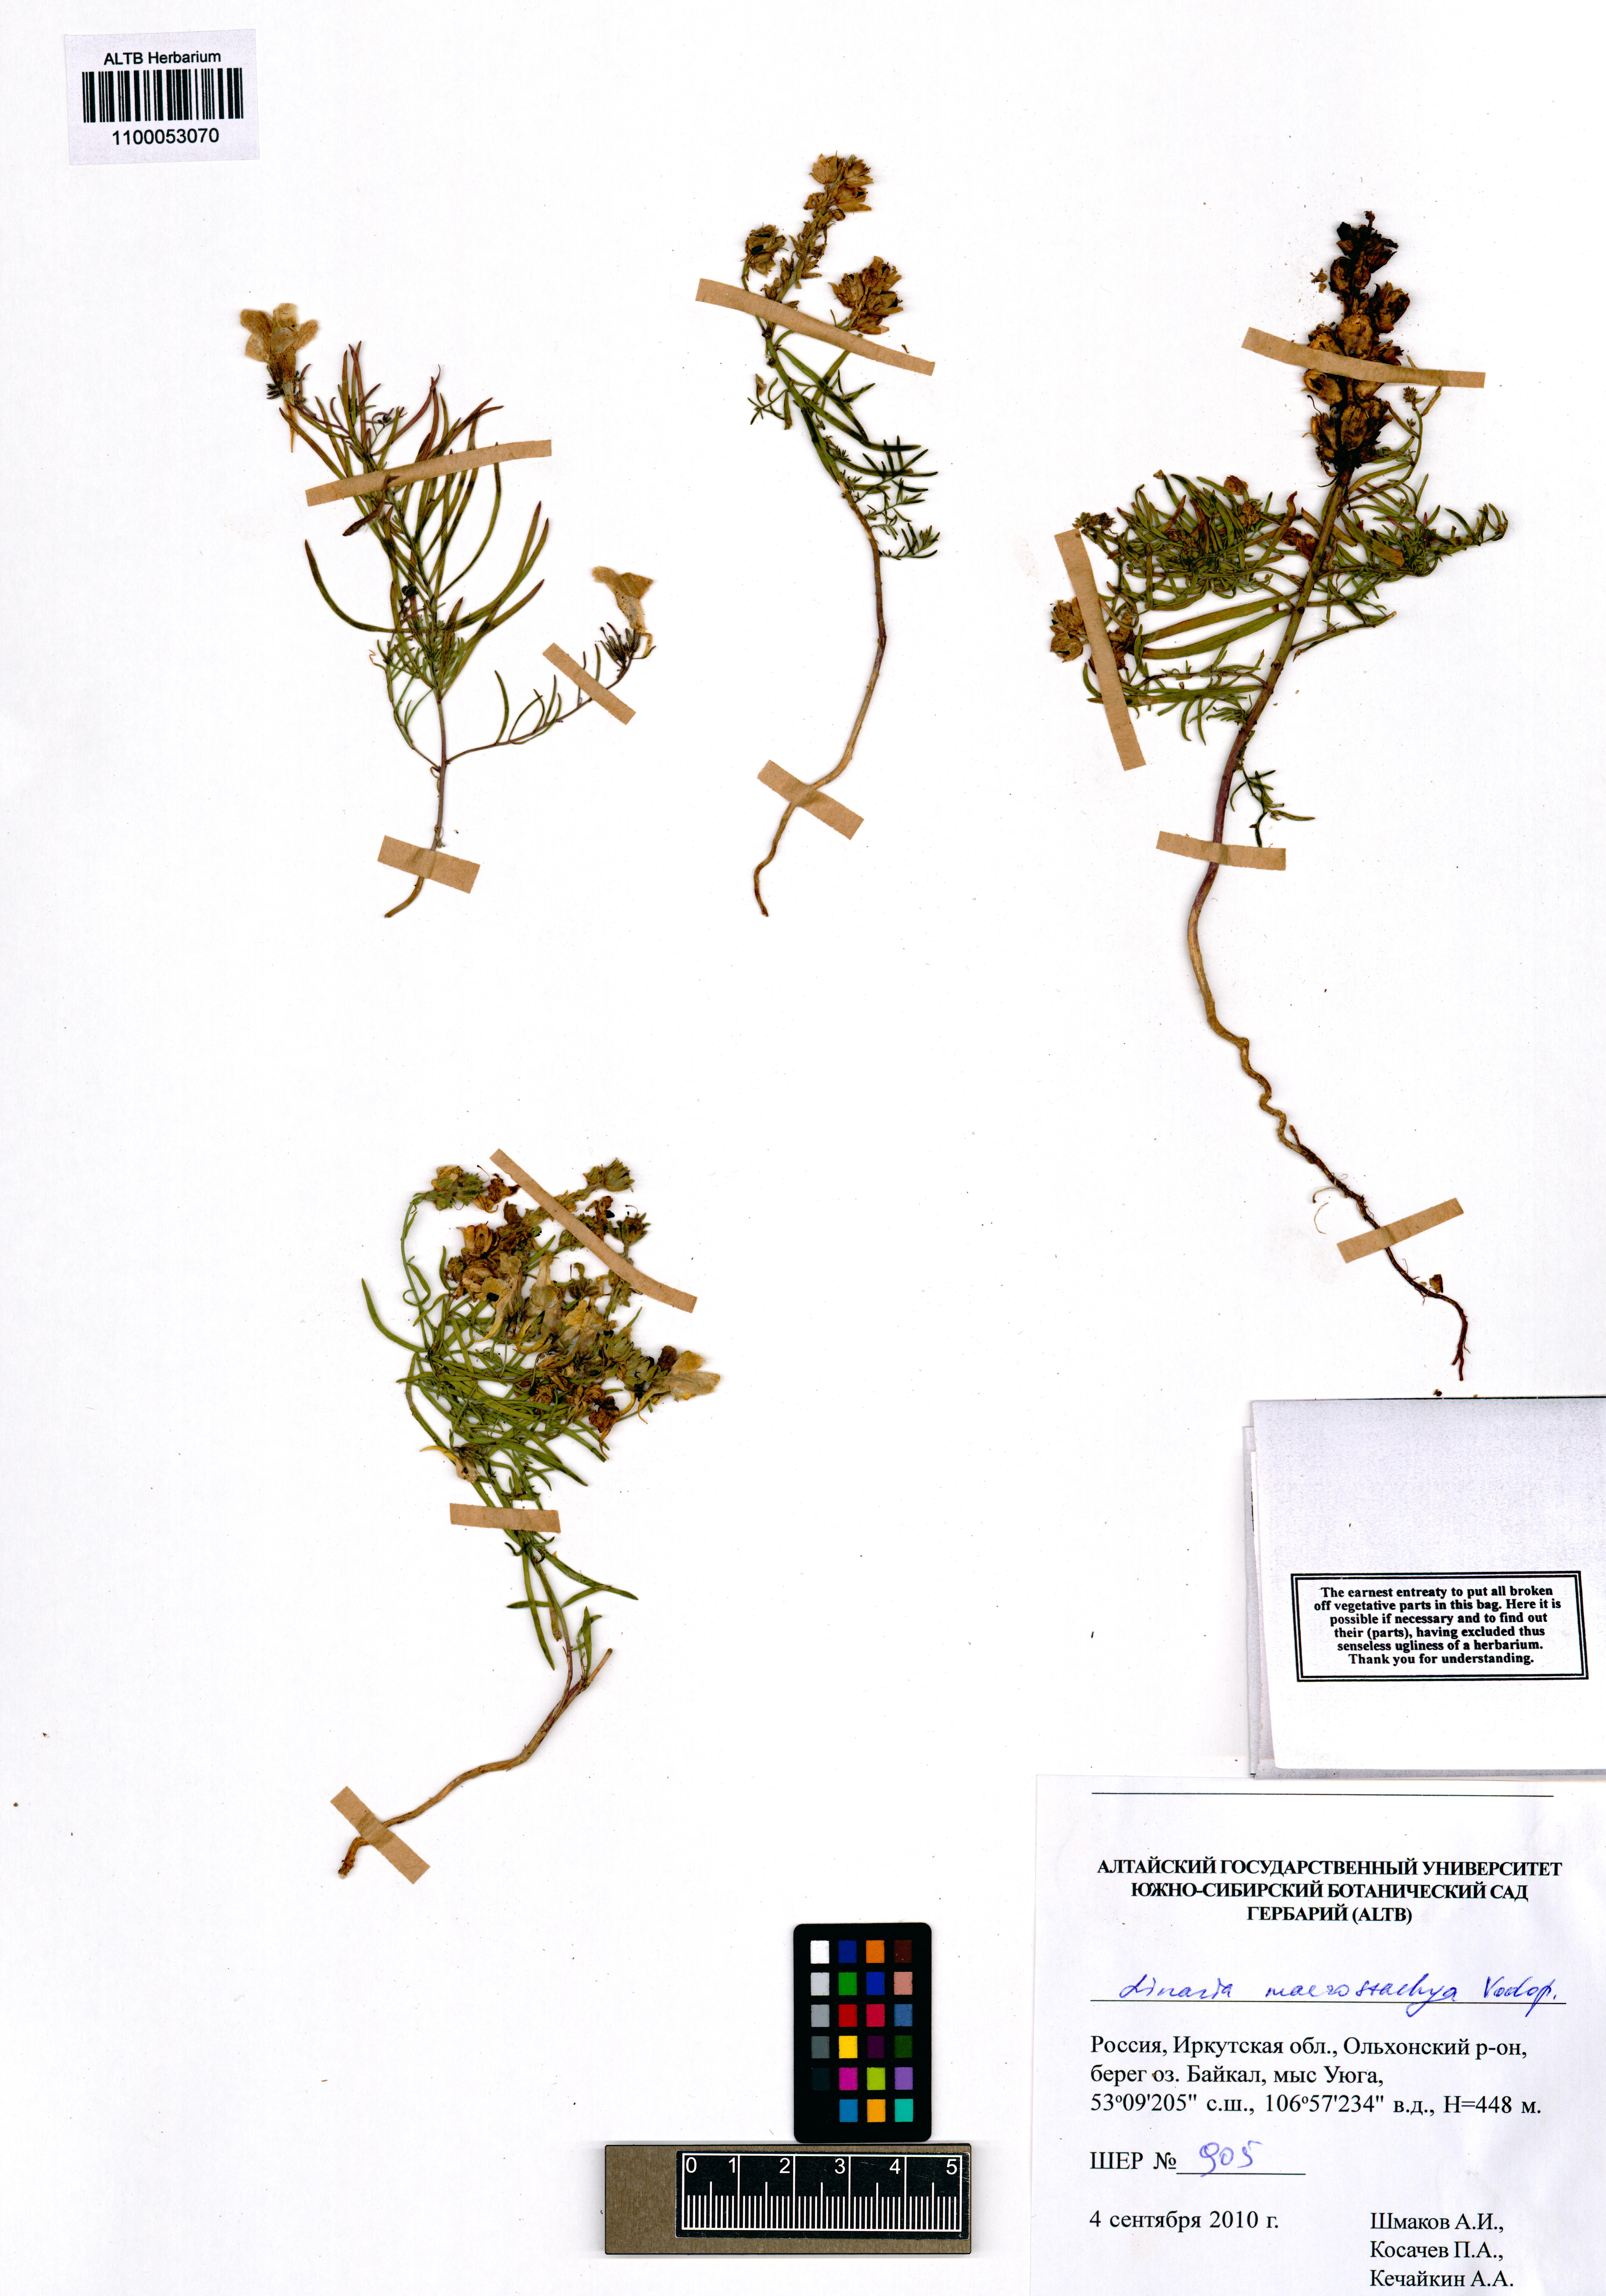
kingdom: Plantae
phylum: Tracheophyta
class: Magnoliopsida
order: Lamiales
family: Plantaginaceae
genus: Linaria
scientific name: Linaria buriatica
